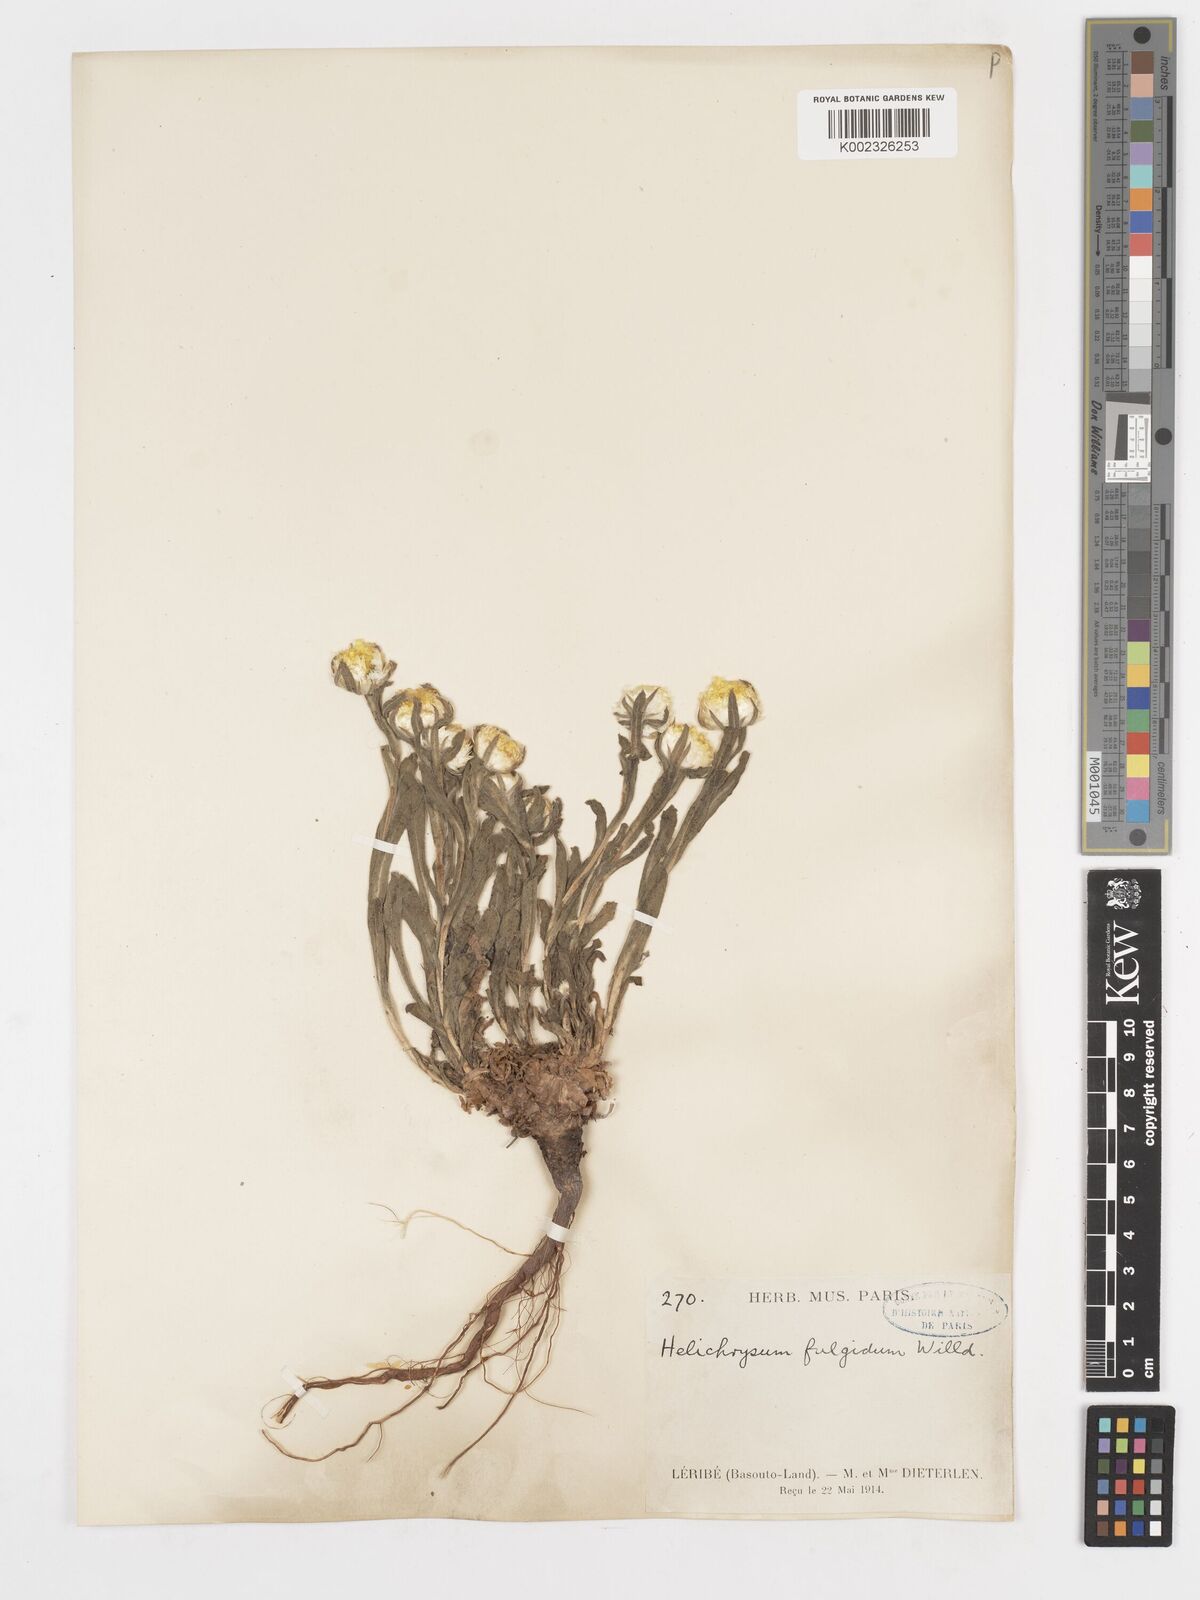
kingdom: Plantae
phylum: Tracheophyta
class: Magnoliopsida
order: Asterales
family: Asteraceae
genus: Helichrysum
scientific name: Helichrysum aureum
